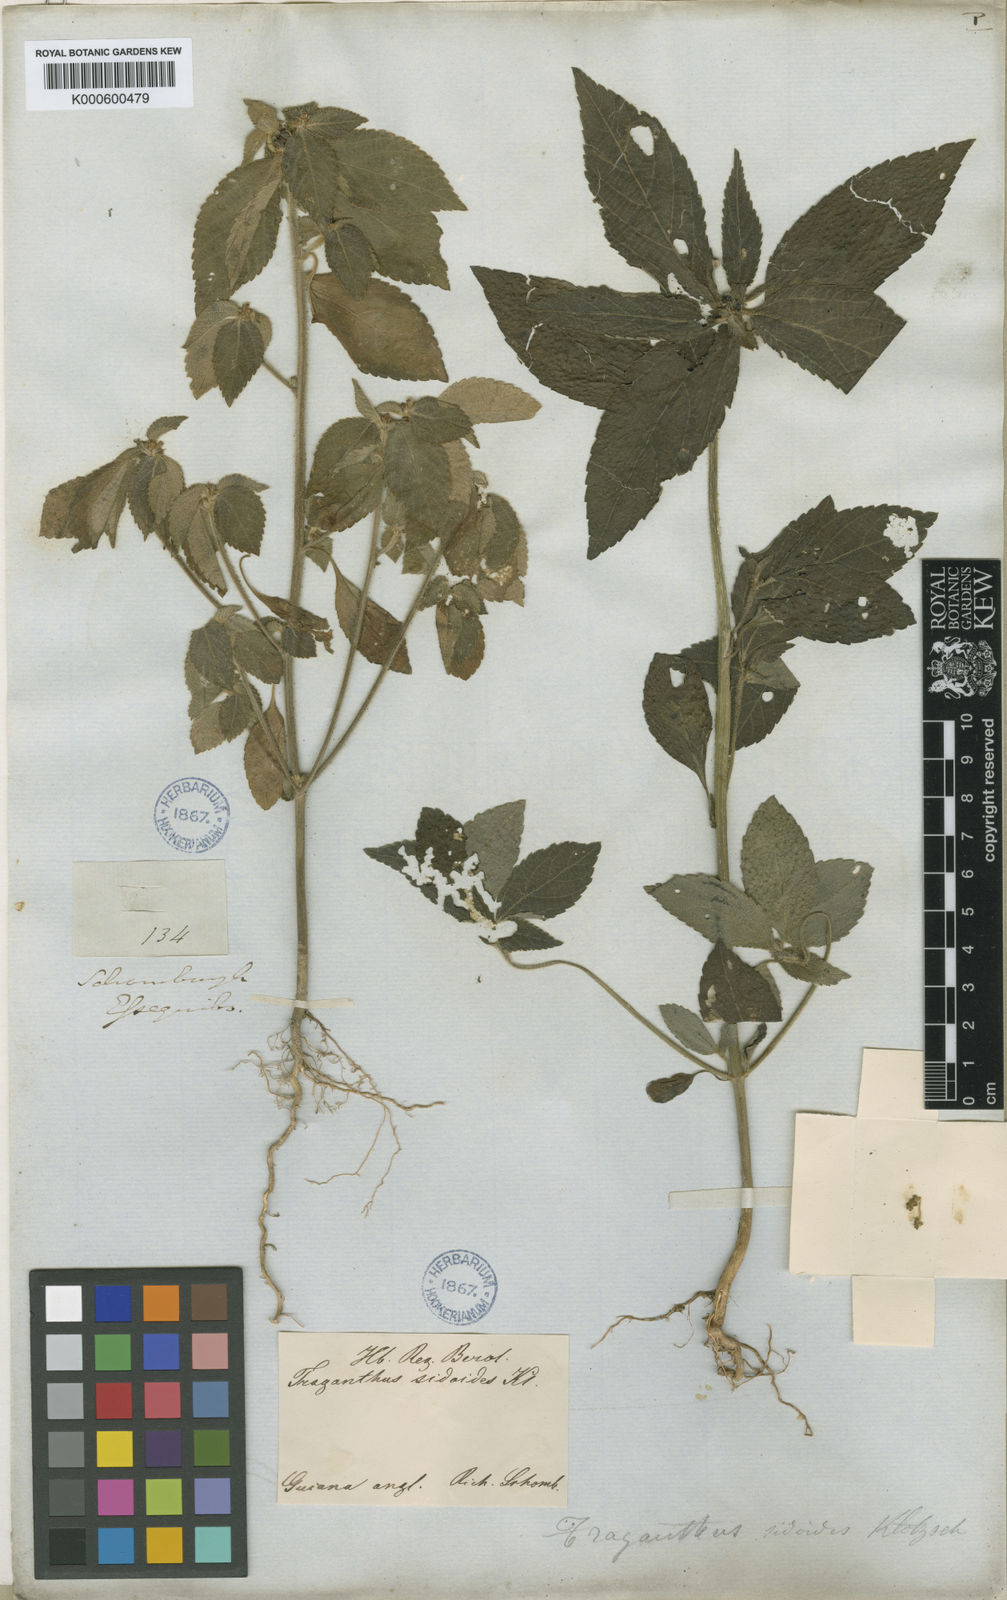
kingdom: Plantae
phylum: Tracheophyta
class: Magnoliopsida
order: Malpighiales
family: Euphorbiaceae
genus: Bernardia
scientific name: Bernardia
